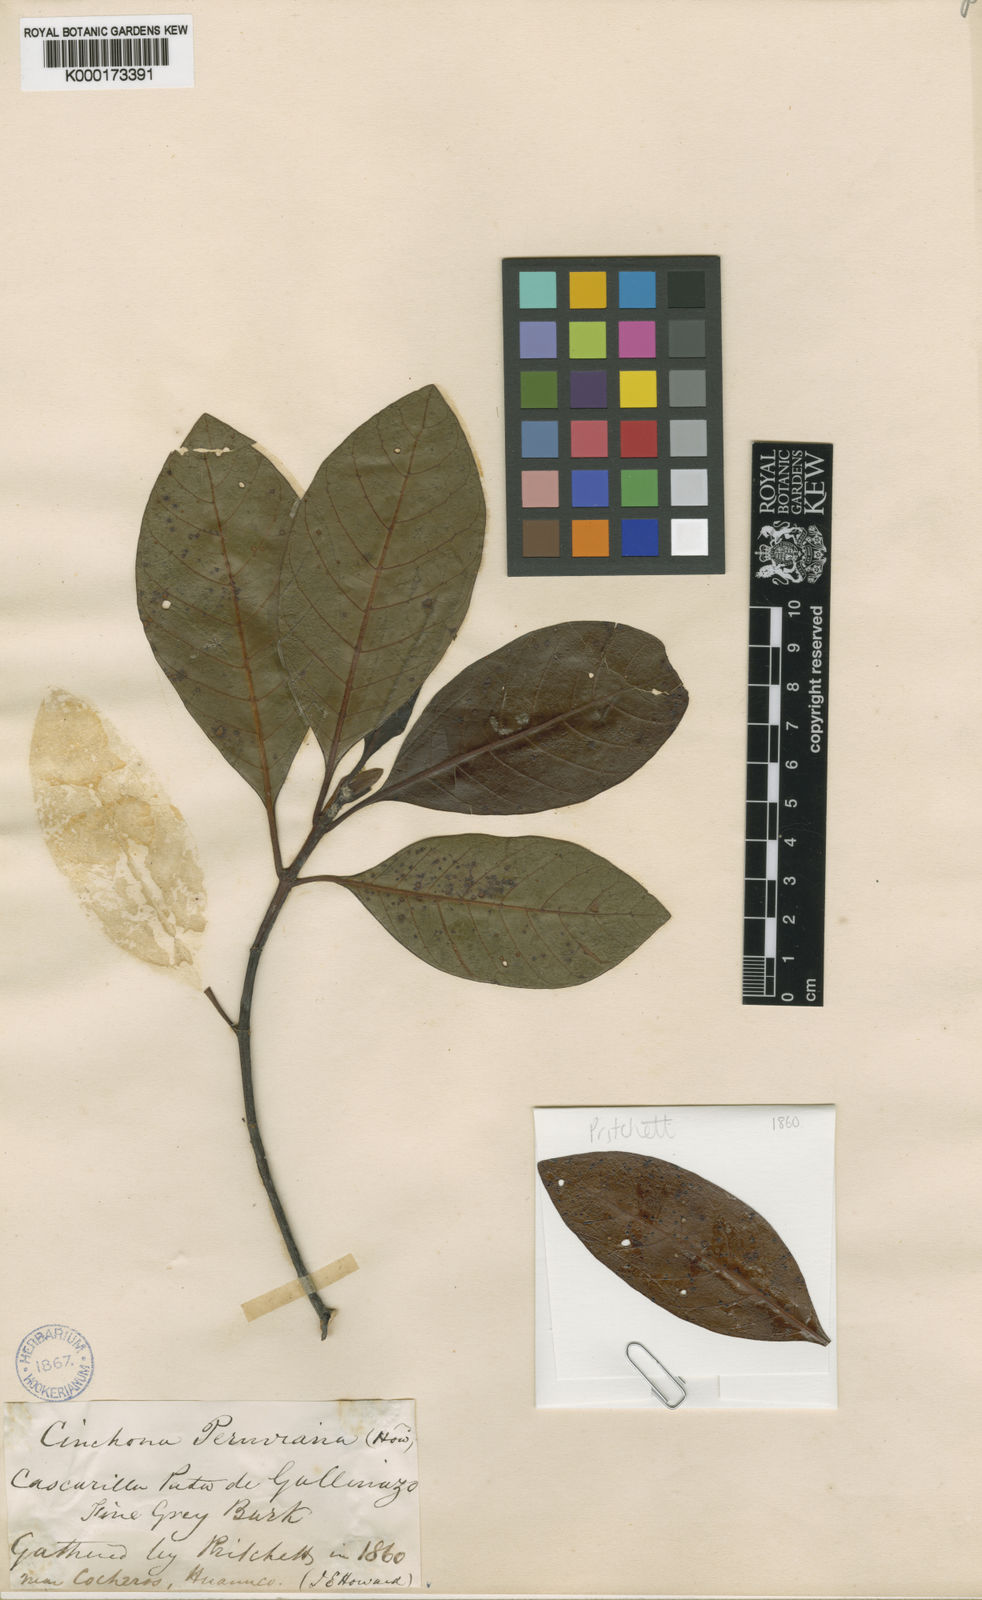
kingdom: Plantae
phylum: Tracheophyta
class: Magnoliopsida
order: Gentianales
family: Rubiaceae
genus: Cinchona
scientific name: Cinchona calisaya
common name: Ledgerbark
